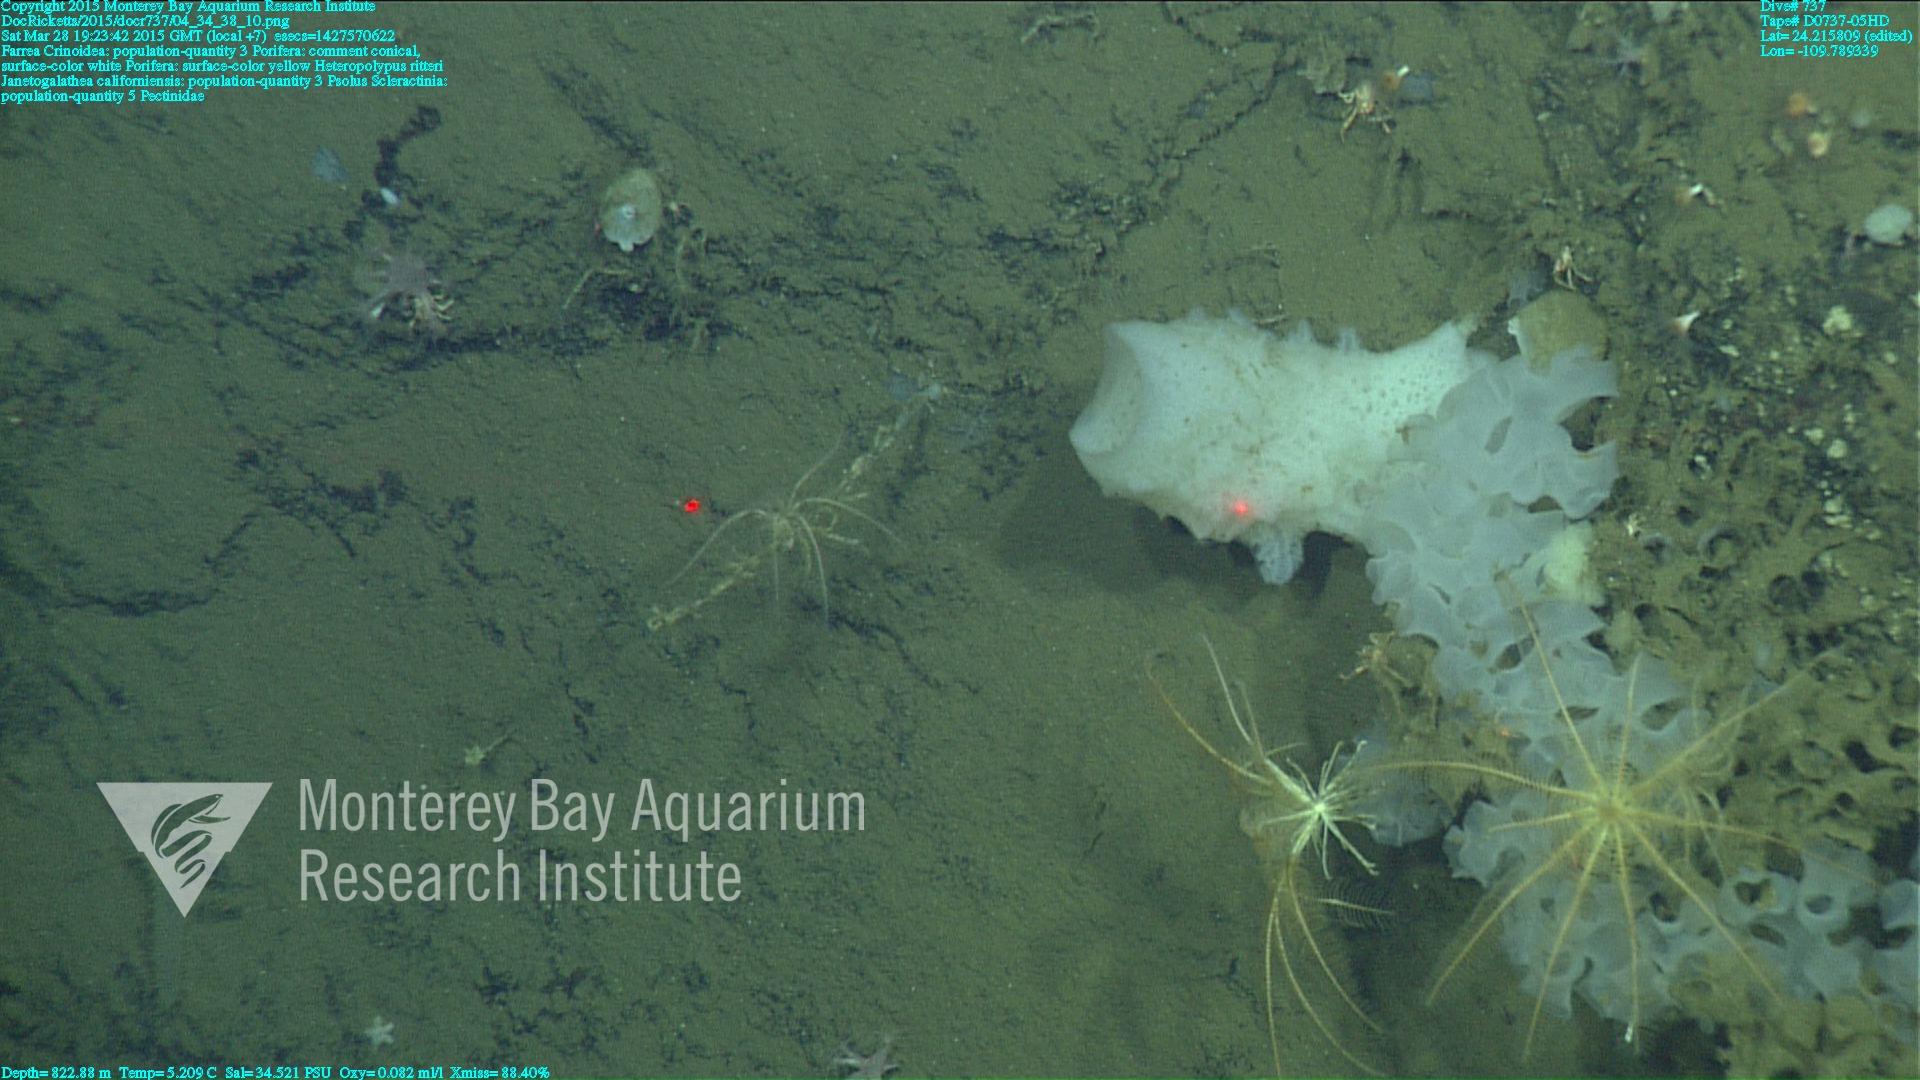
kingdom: Animalia
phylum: Cnidaria
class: Anthozoa
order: Scleractinia
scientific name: Scleractinia
